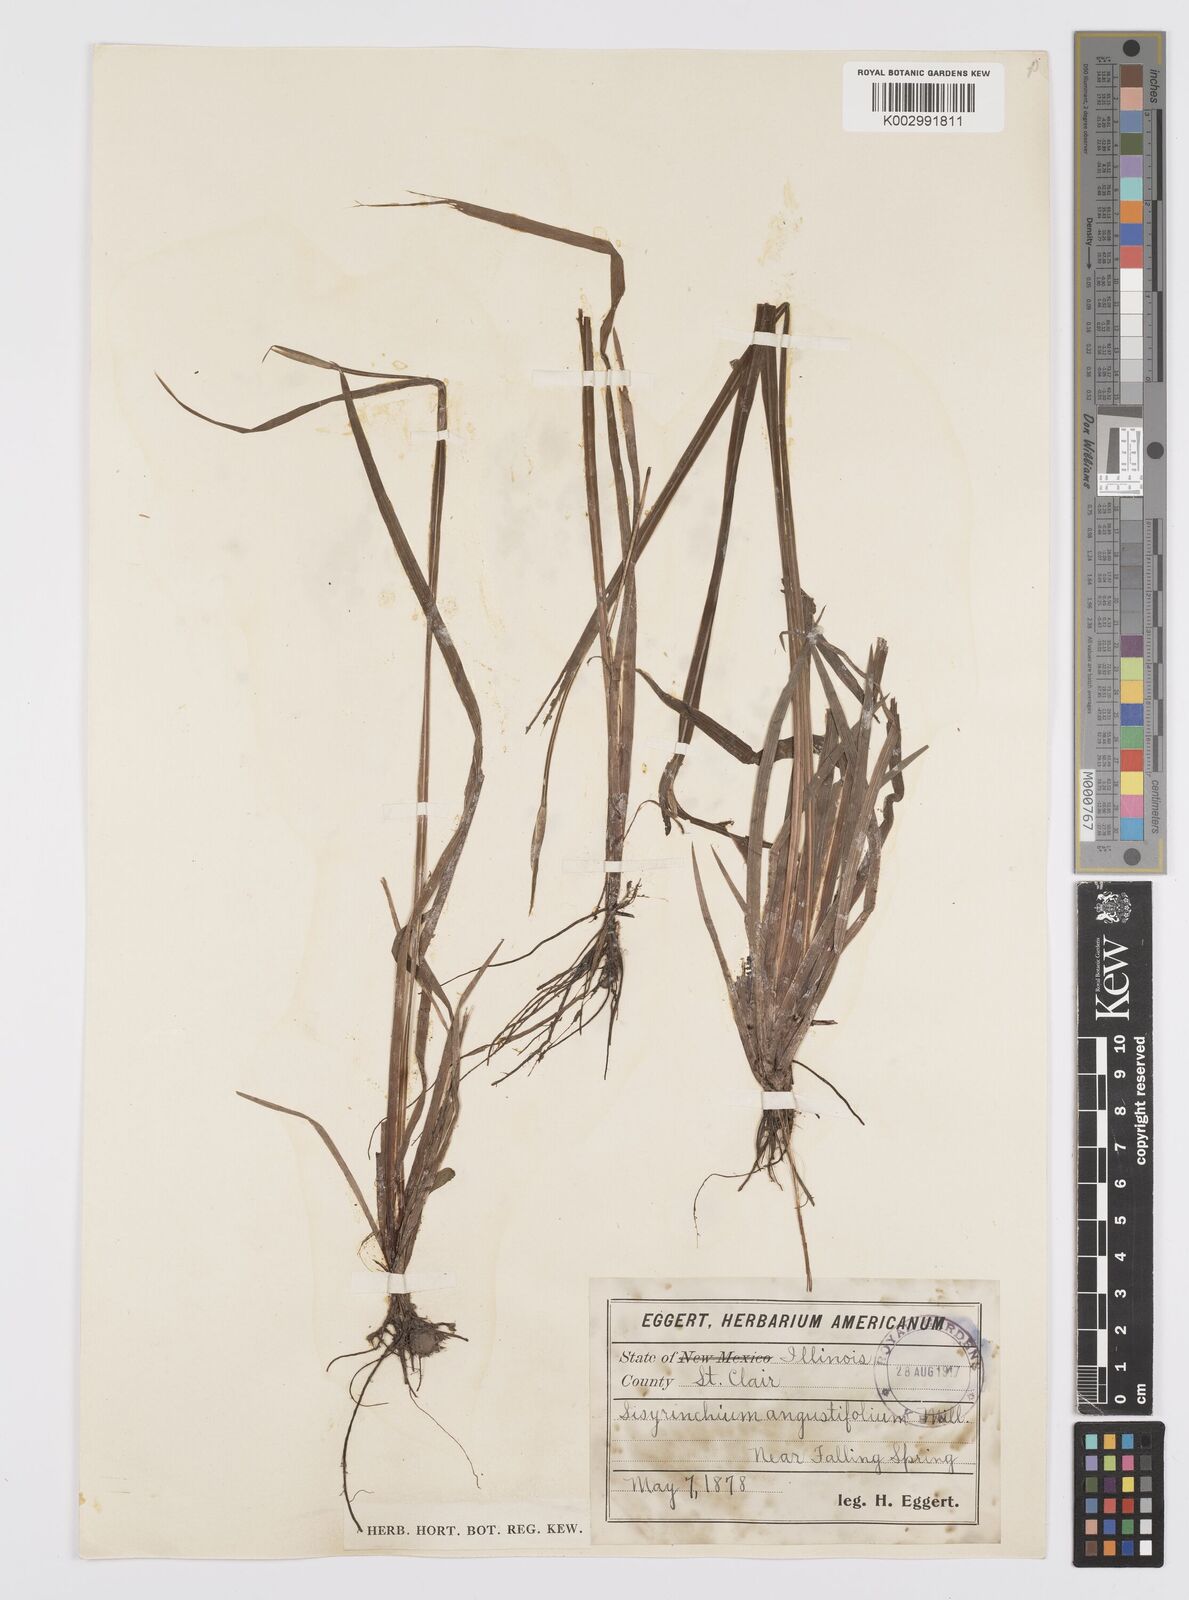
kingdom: Plantae
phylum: Tracheophyta
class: Liliopsida
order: Asparagales
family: Iridaceae
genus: Sisyrinchium
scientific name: Sisyrinchium bermudiana
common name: Blue-eyed-grass
